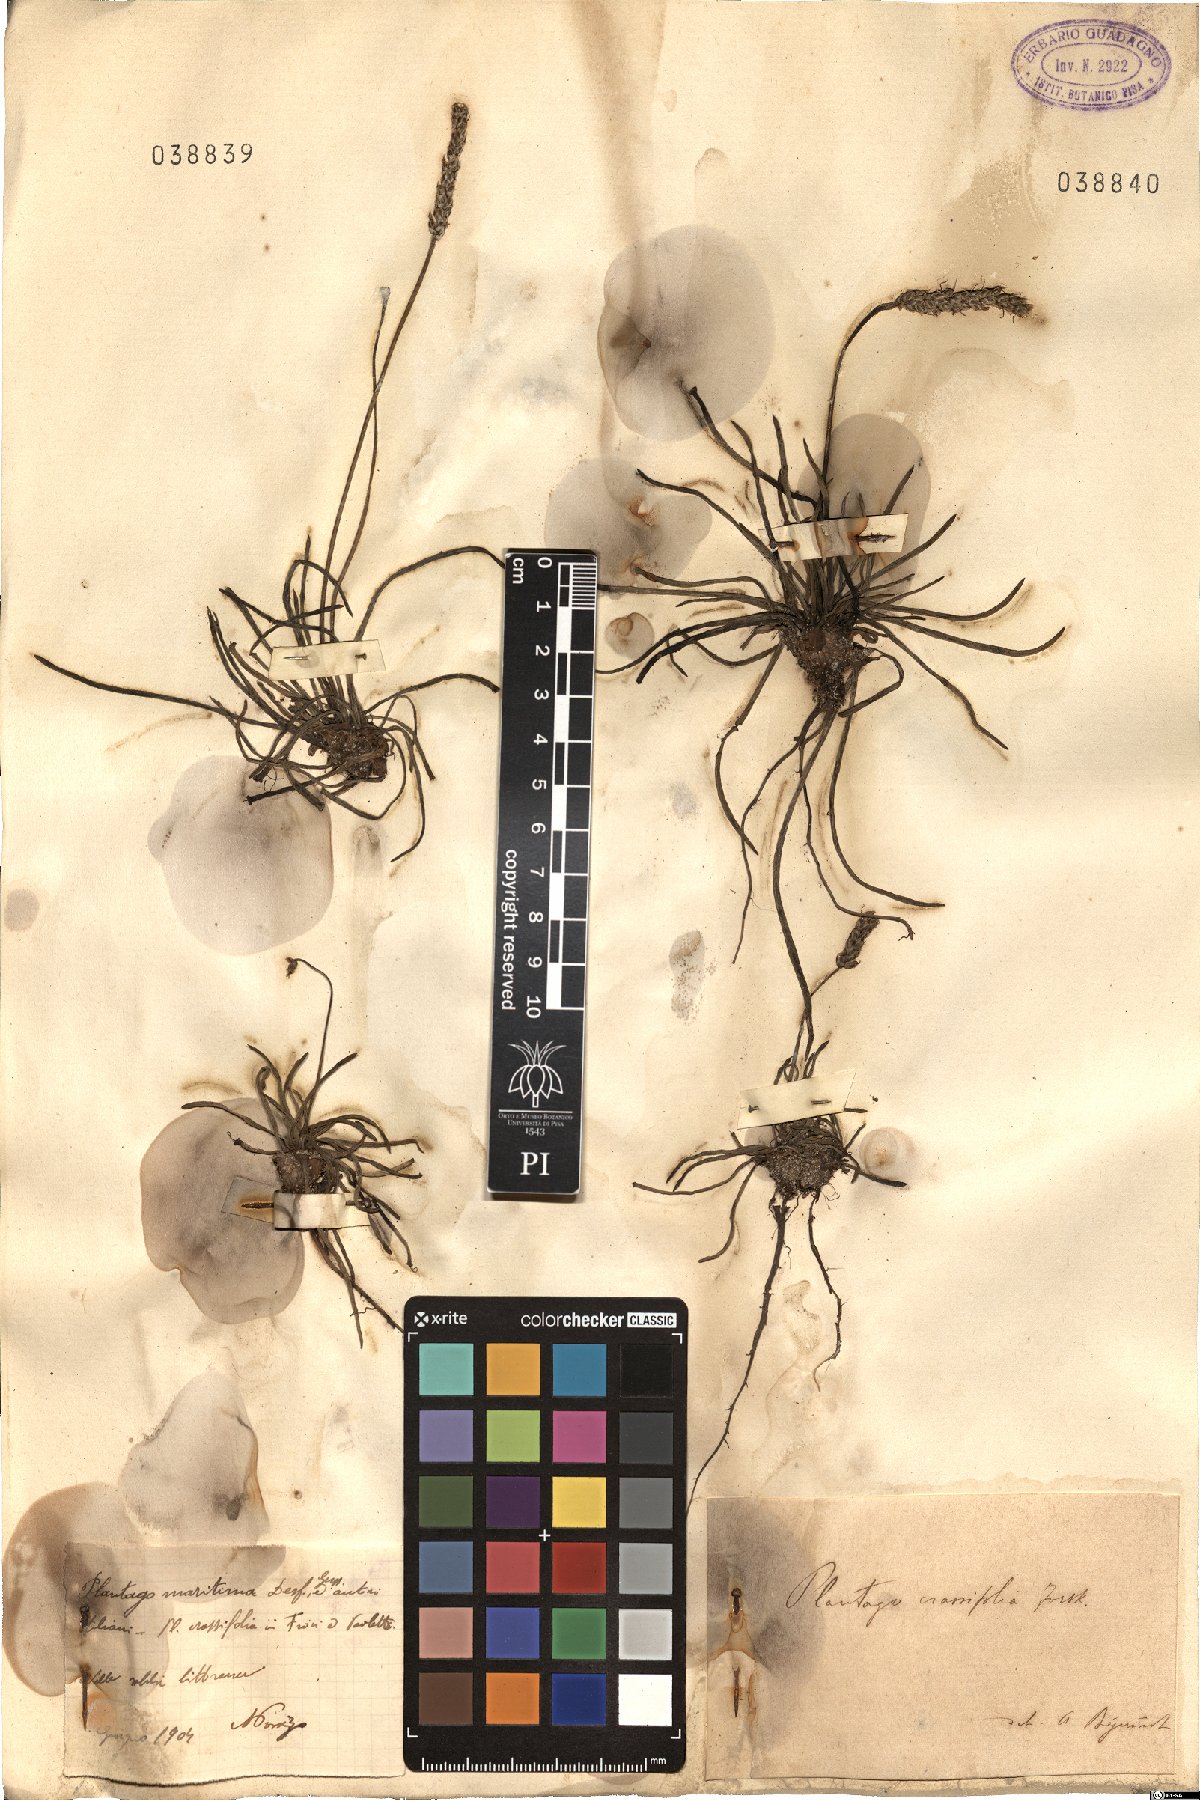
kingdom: Plantae
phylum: Tracheophyta
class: Magnoliopsida
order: Lamiales
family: Plantaginaceae
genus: Plantago
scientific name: Plantago crassifolia
